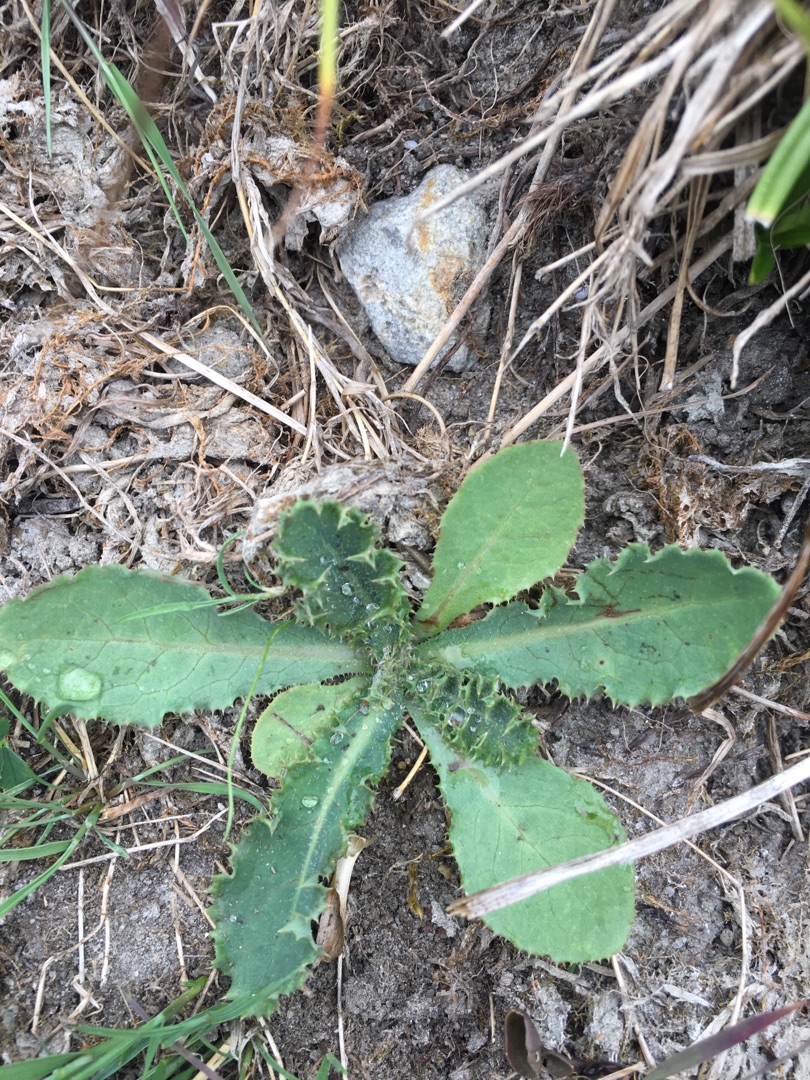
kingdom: Plantae
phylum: Tracheophyta
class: Magnoliopsida
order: Asterales
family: Asteraceae
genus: Sonchus
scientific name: Sonchus asper
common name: Ru svinemælk
